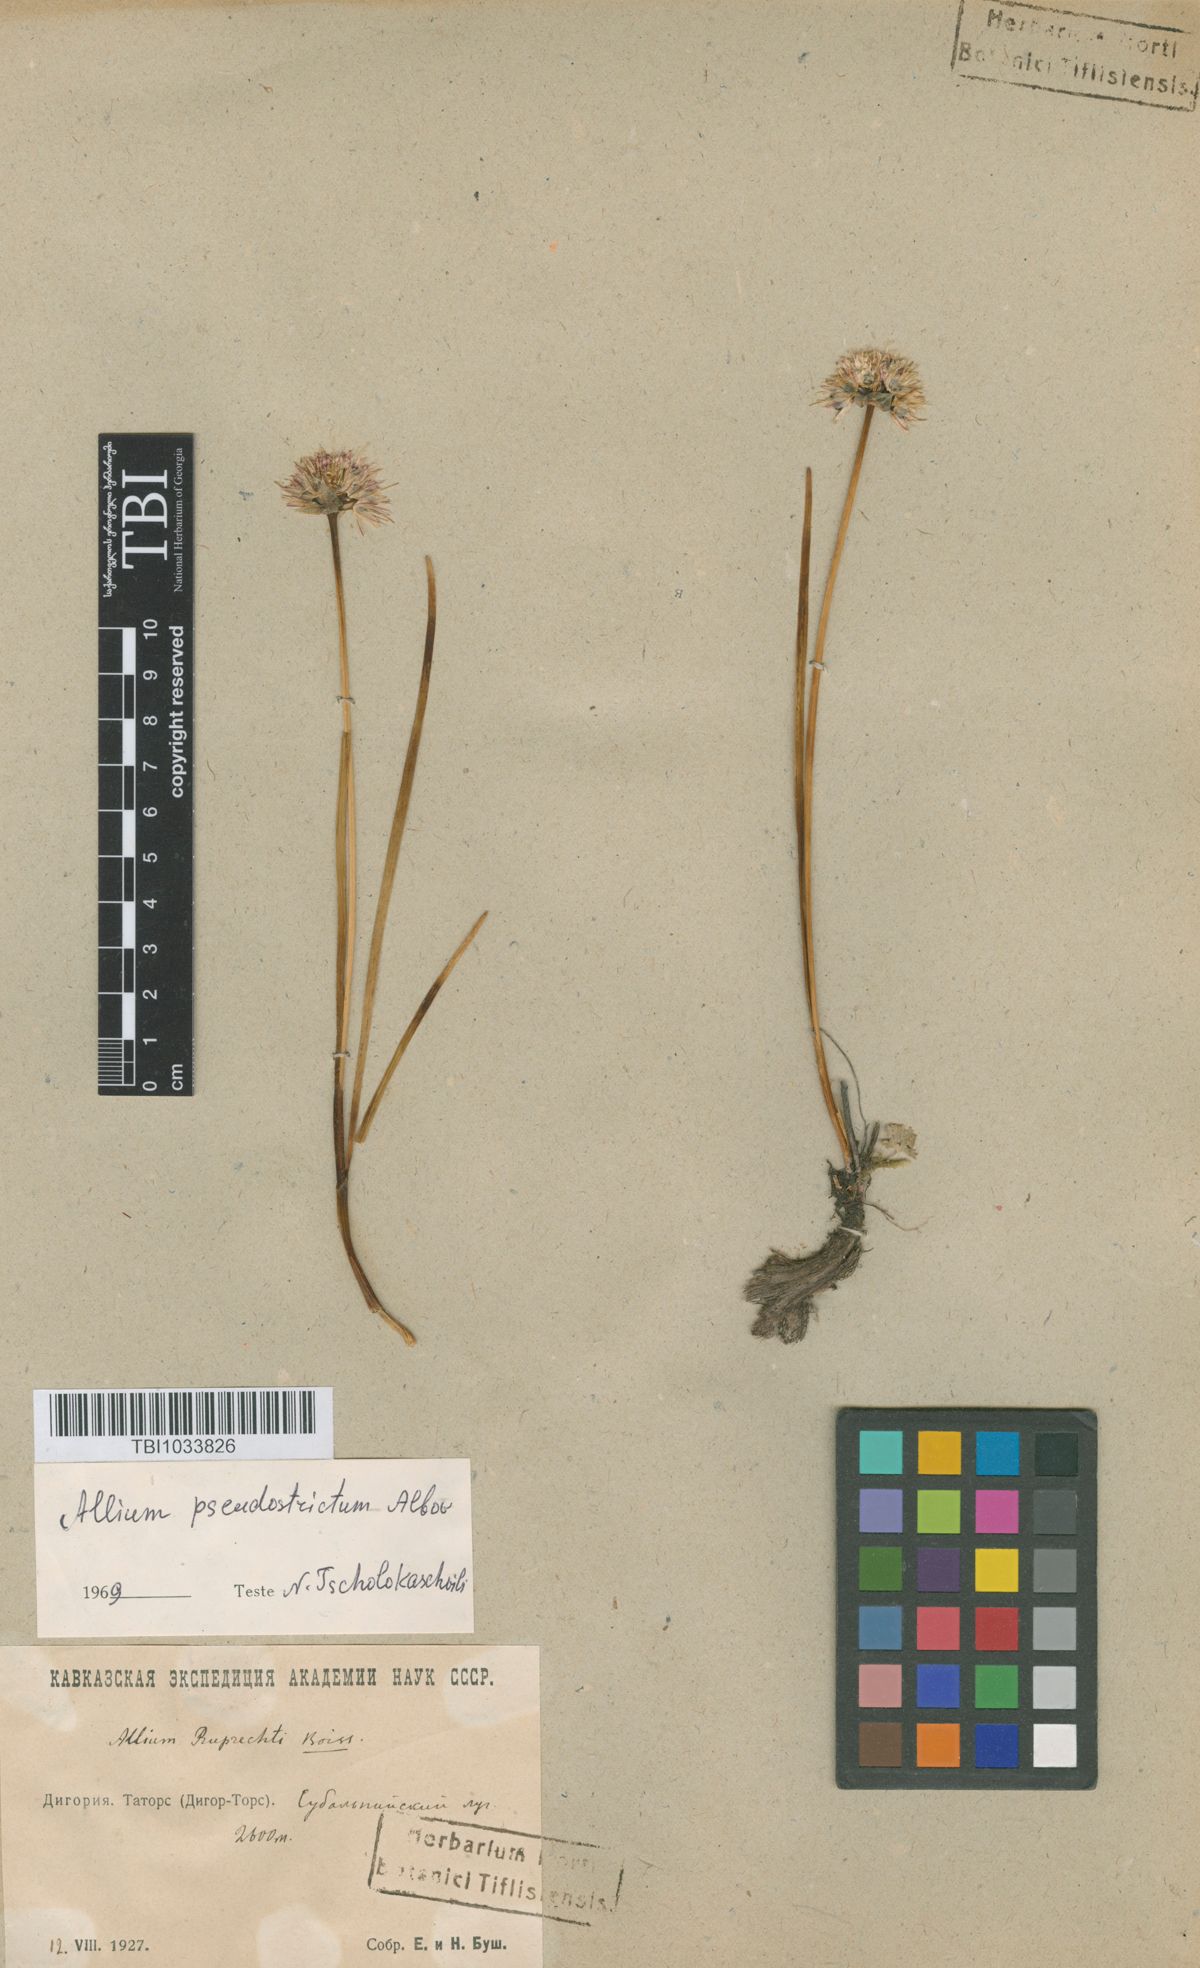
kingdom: Plantae
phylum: Tracheophyta
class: Liliopsida
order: Asparagales
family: Amaryllidaceae
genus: Allium
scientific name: Allium pseudostrictum
